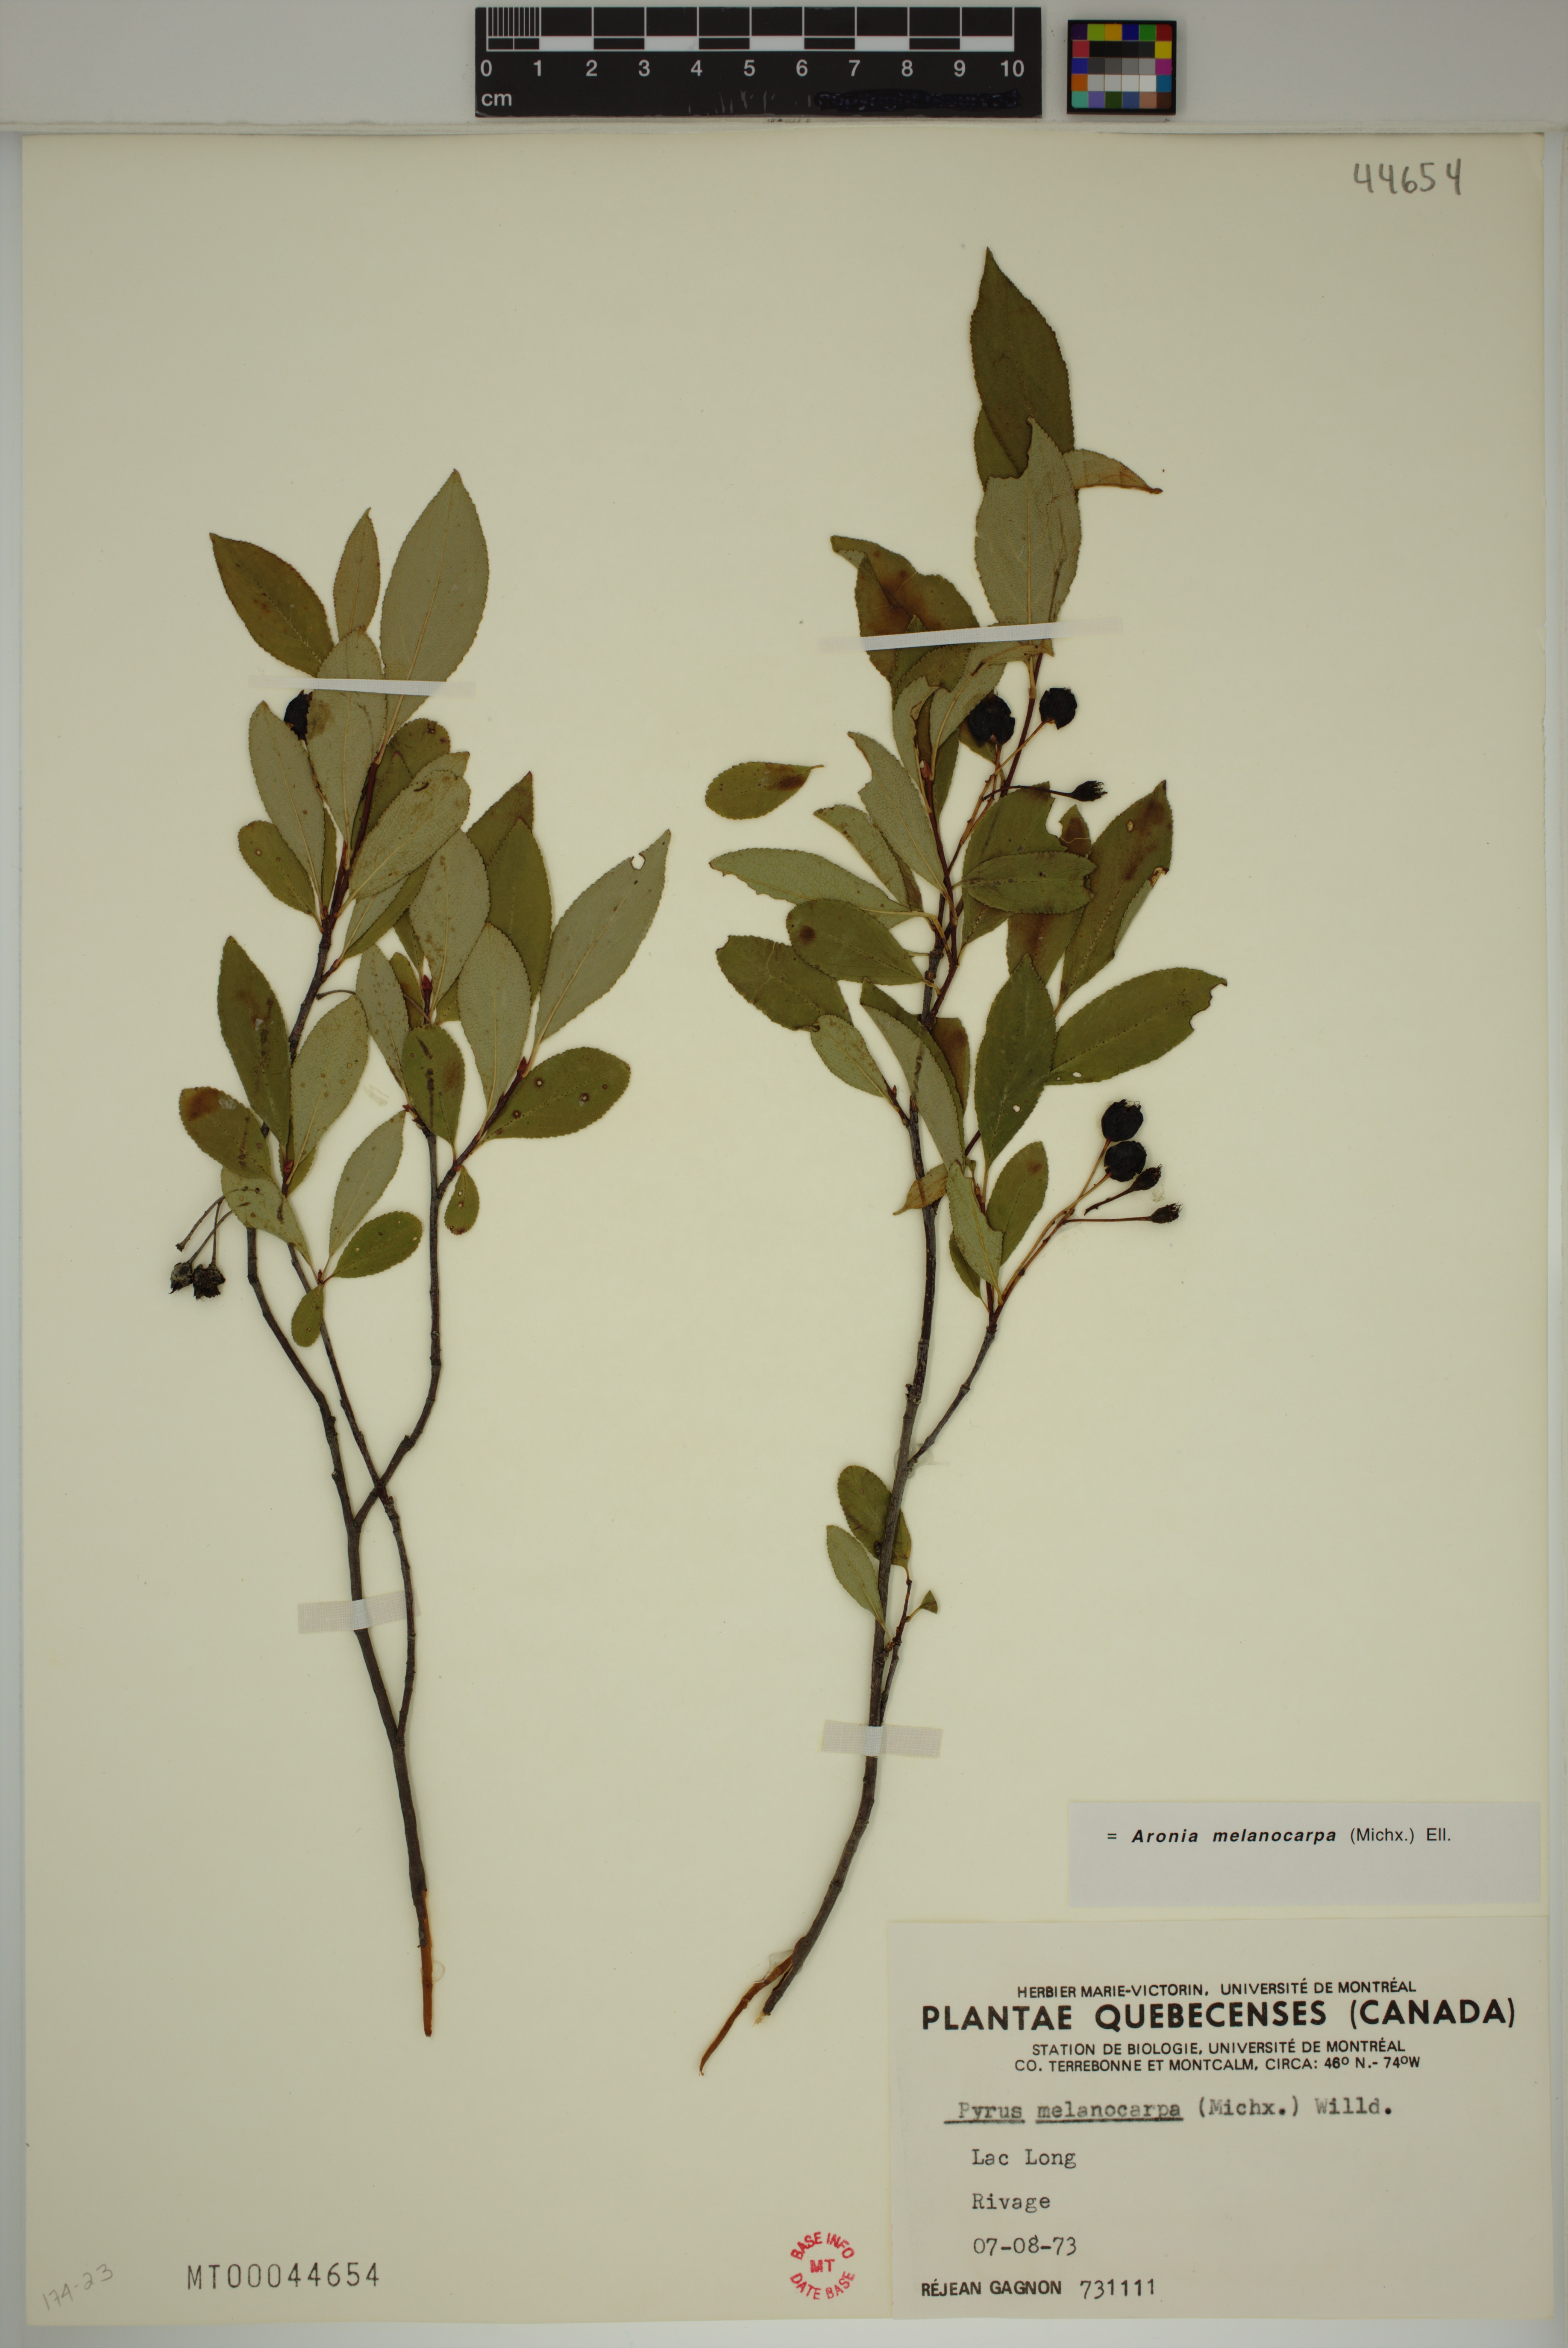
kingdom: Plantae
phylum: Tracheophyta
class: Magnoliopsida
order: Rosales
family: Rosaceae
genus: Aronia
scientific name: Aronia melanocarpa
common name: Black chokeberry
